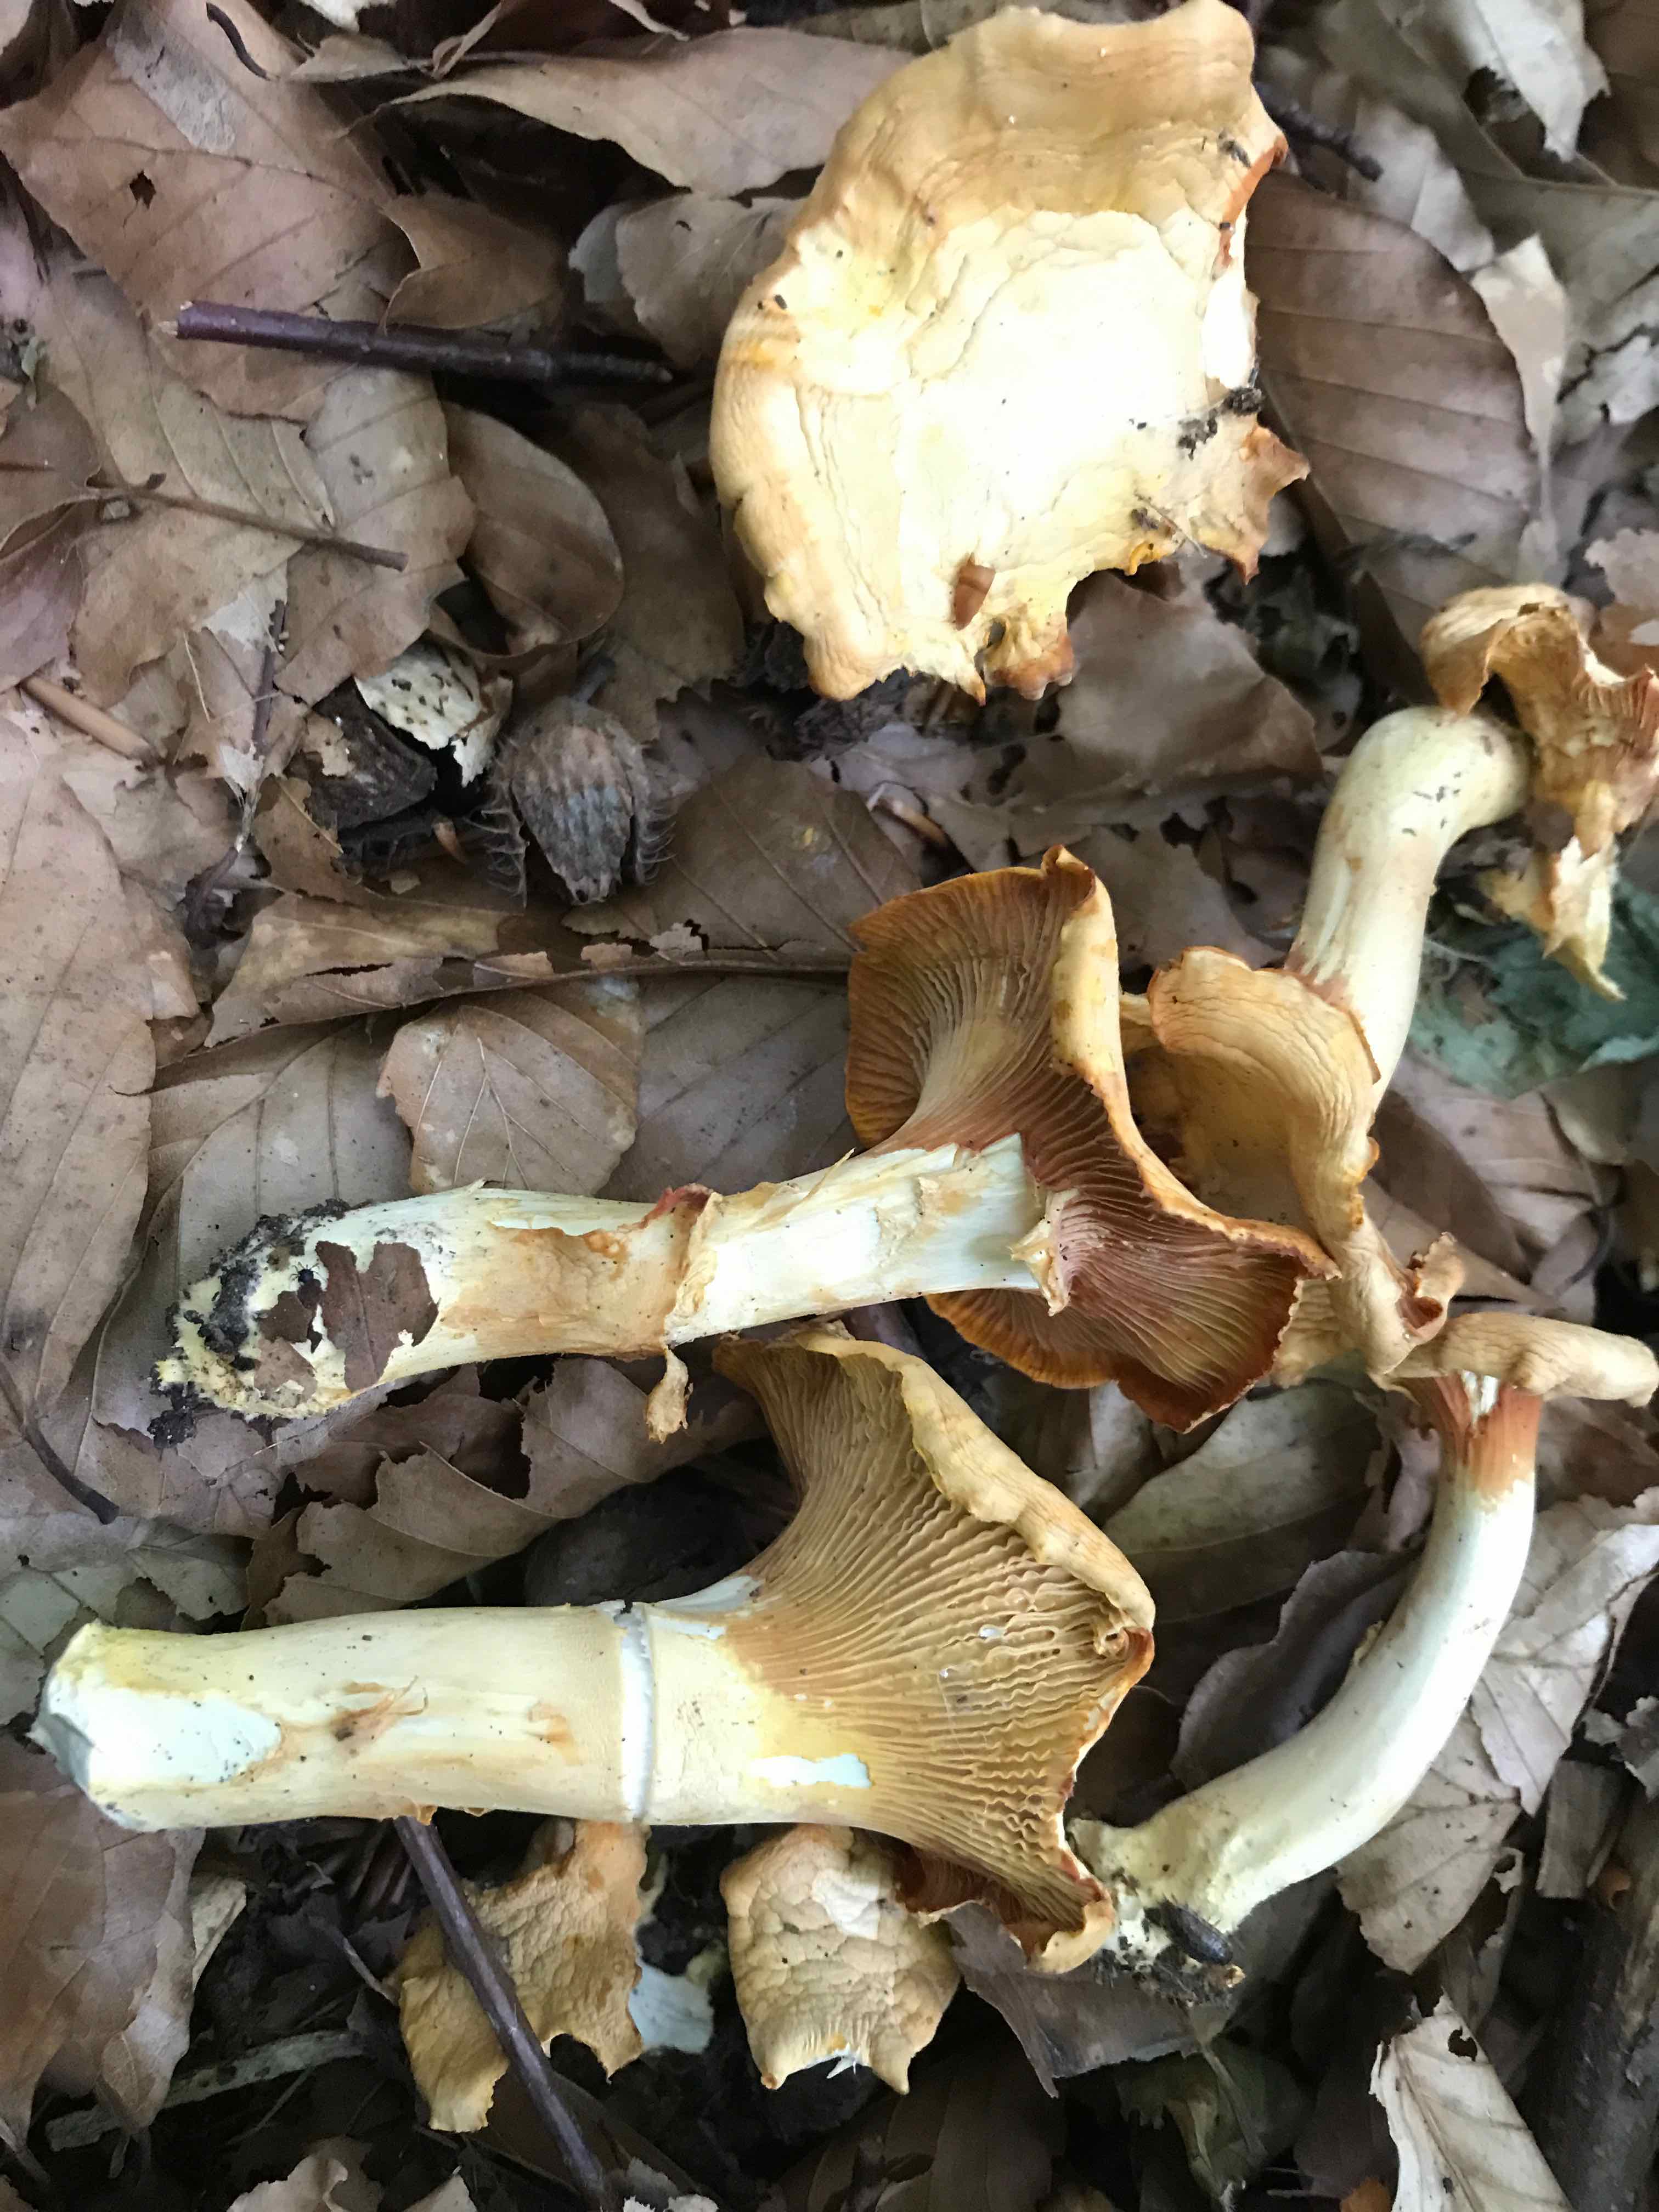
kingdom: Fungi
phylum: Basidiomycota
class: Agaricomycetes
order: Cantharellales
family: Hydnaceae
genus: Cantharellus
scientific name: Cantharellus pallens
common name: bleg kantarel
